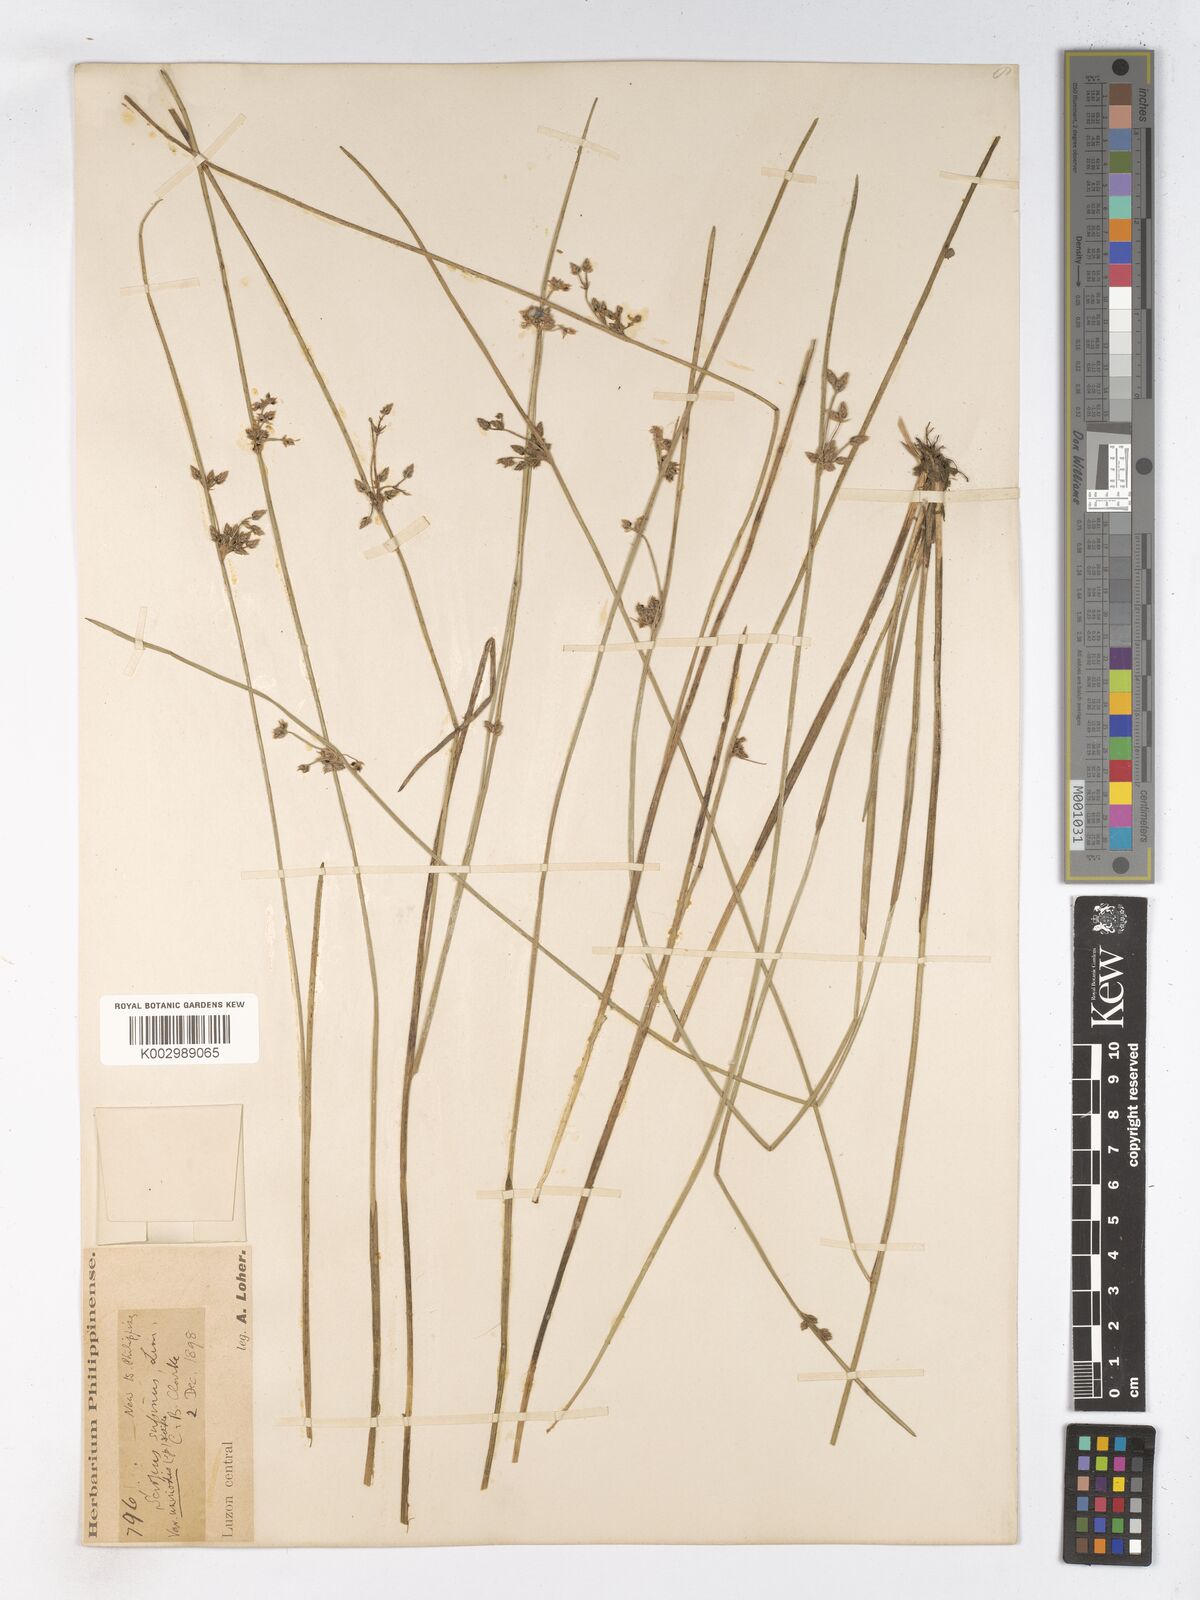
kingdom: Plantae
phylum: Tracheophyta
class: Liliopsida
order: Poales
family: Cyperaceae
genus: Schoenoplectiella
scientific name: Schoenoplectiella lateriflora
